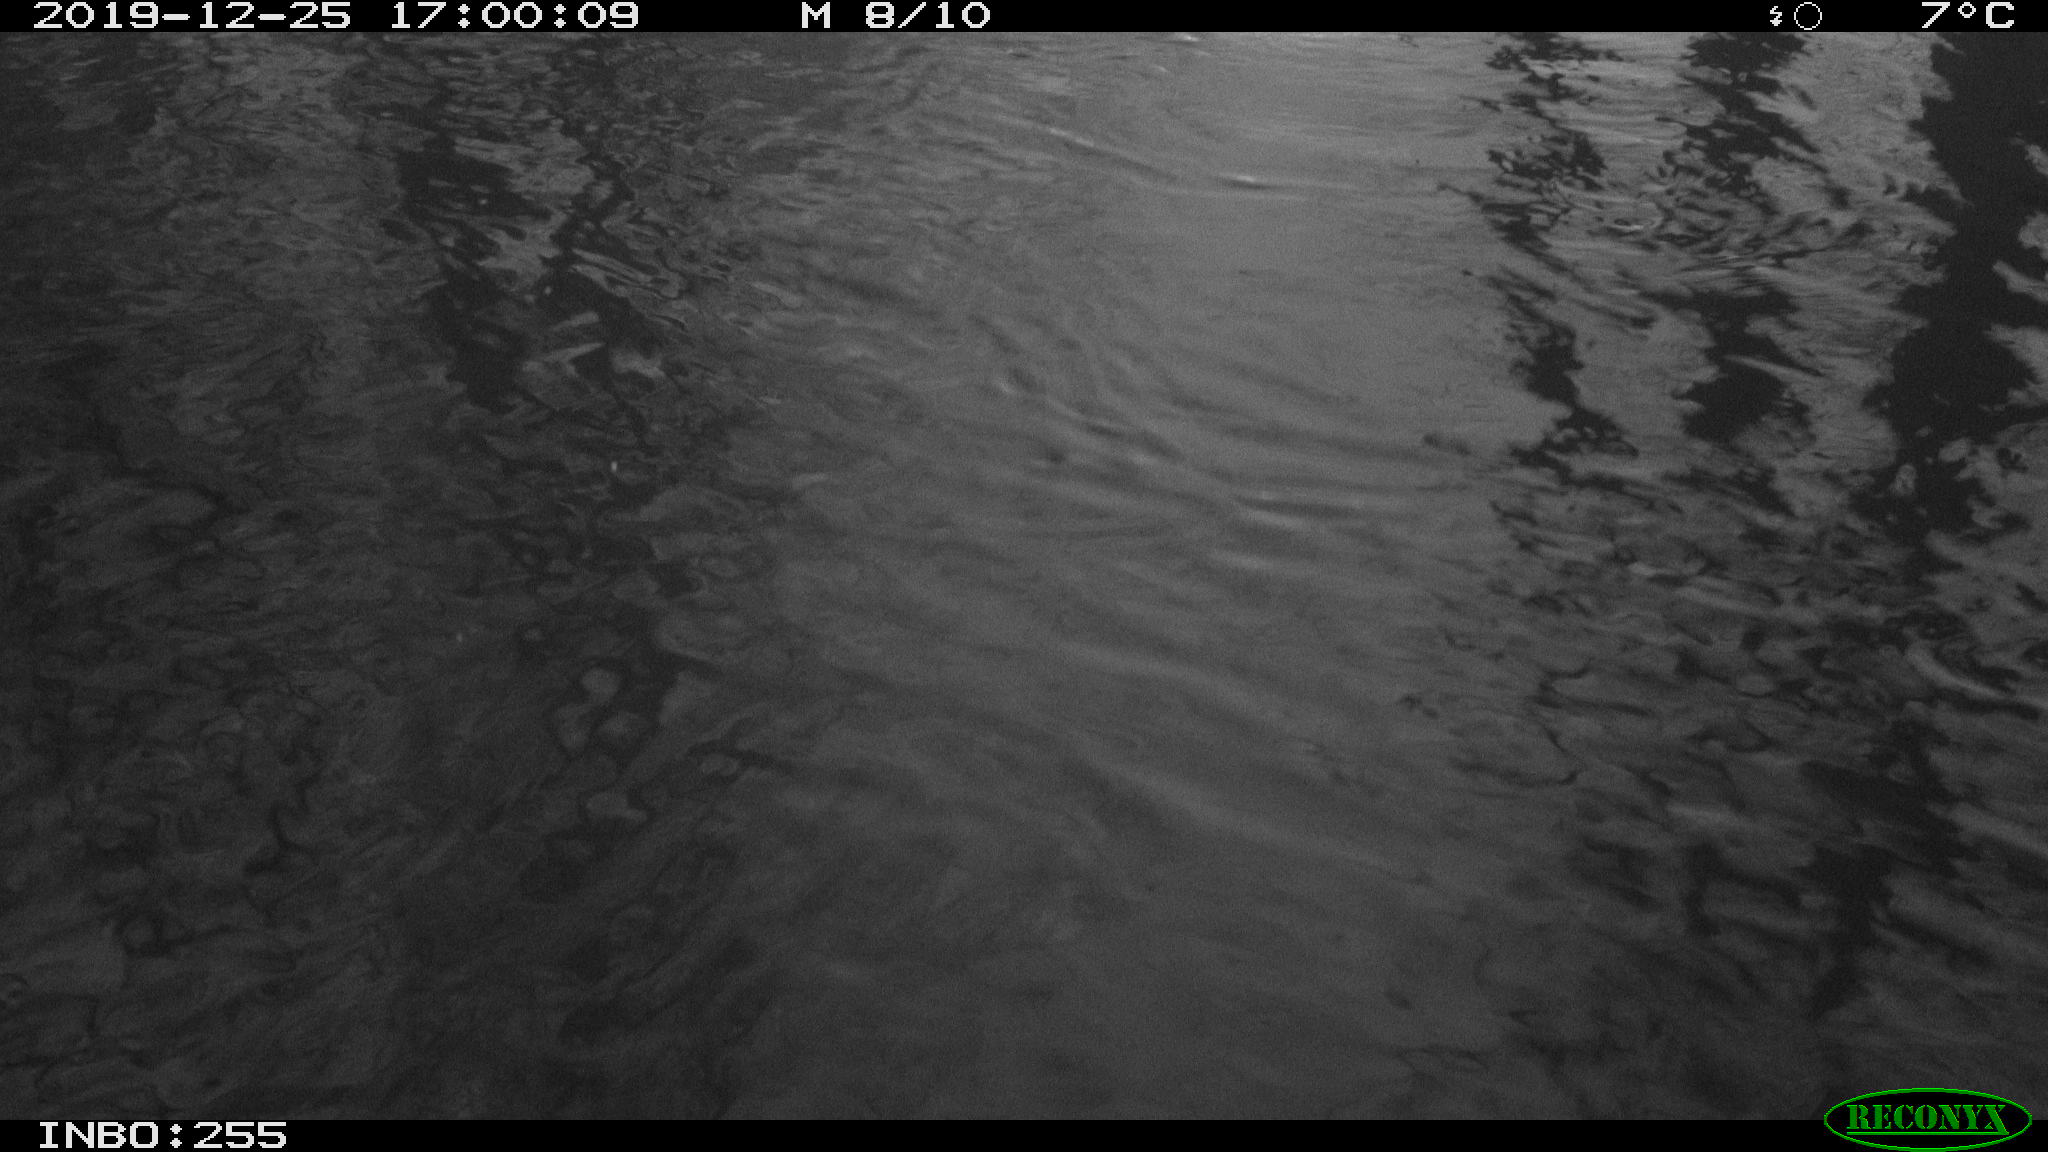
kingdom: Animalia
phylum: Chordata
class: Aves
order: Anseriformes
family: Anatidae
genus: Anas
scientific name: Anas platyrhynchos
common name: Mallard
